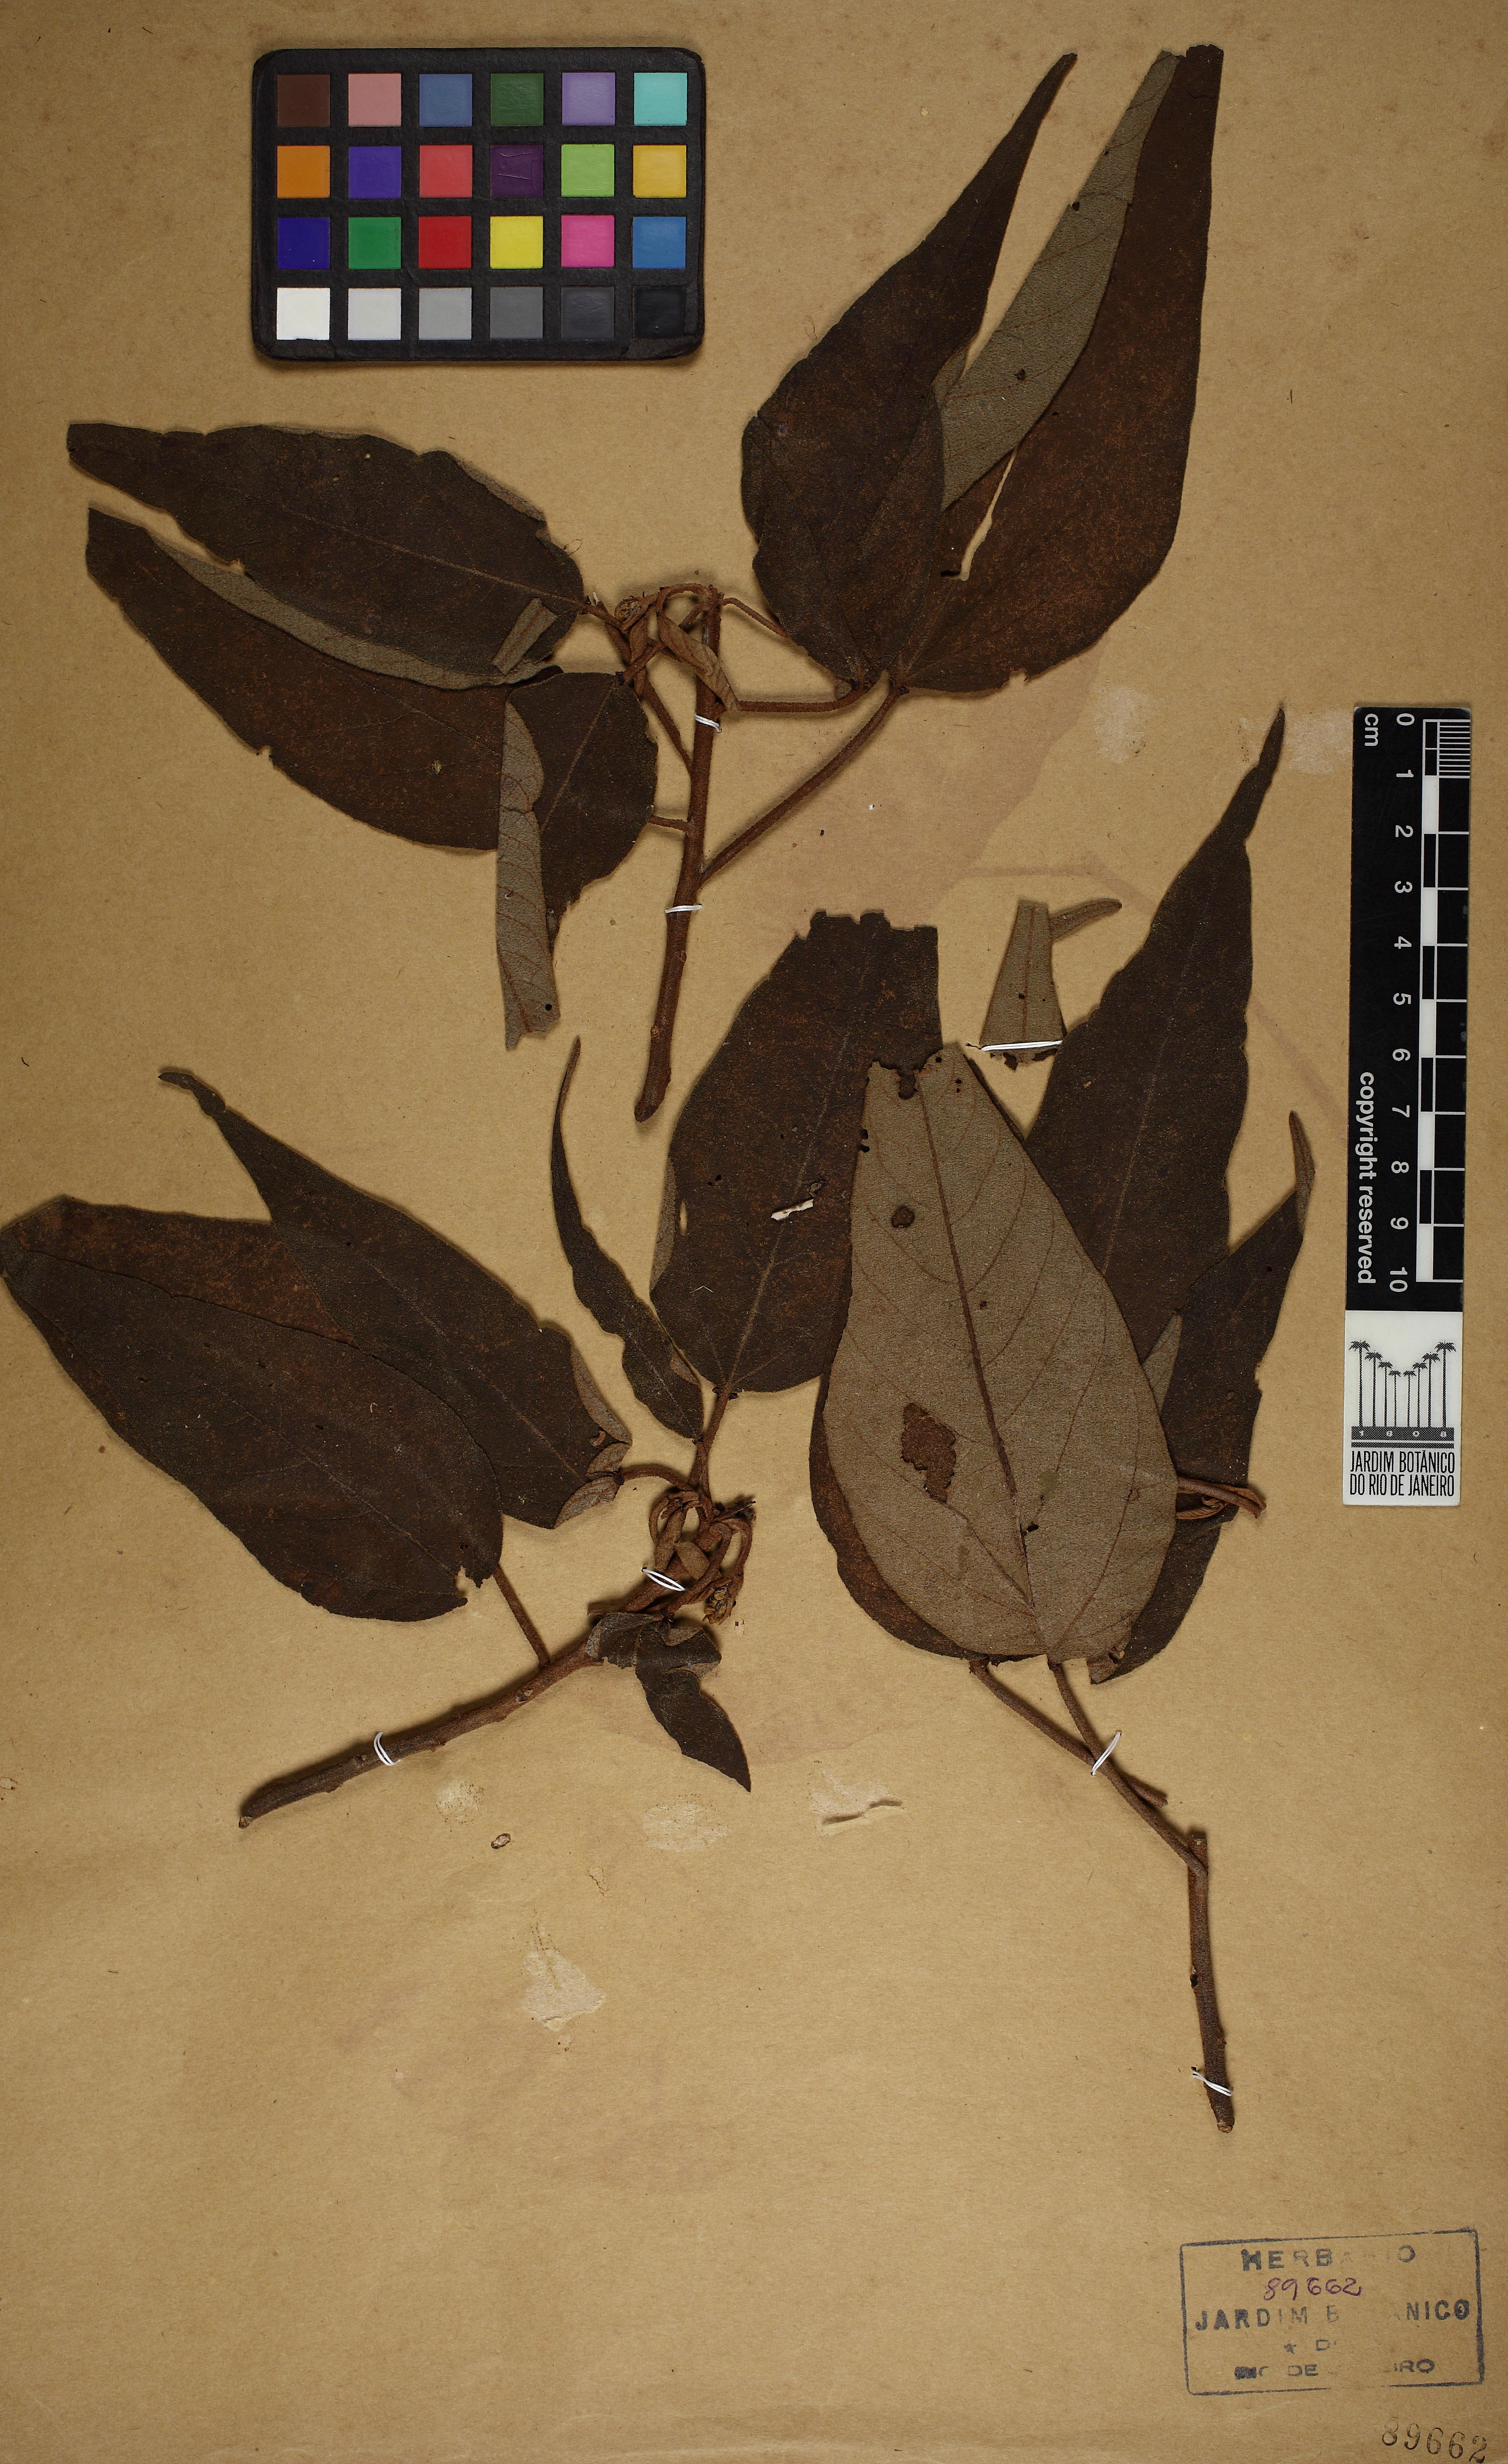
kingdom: Plantae
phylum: Tracheophyta
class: Magnoliopsida
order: Malpighiales
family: Euphorbiaceae
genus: Croton
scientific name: Croton exuberans
